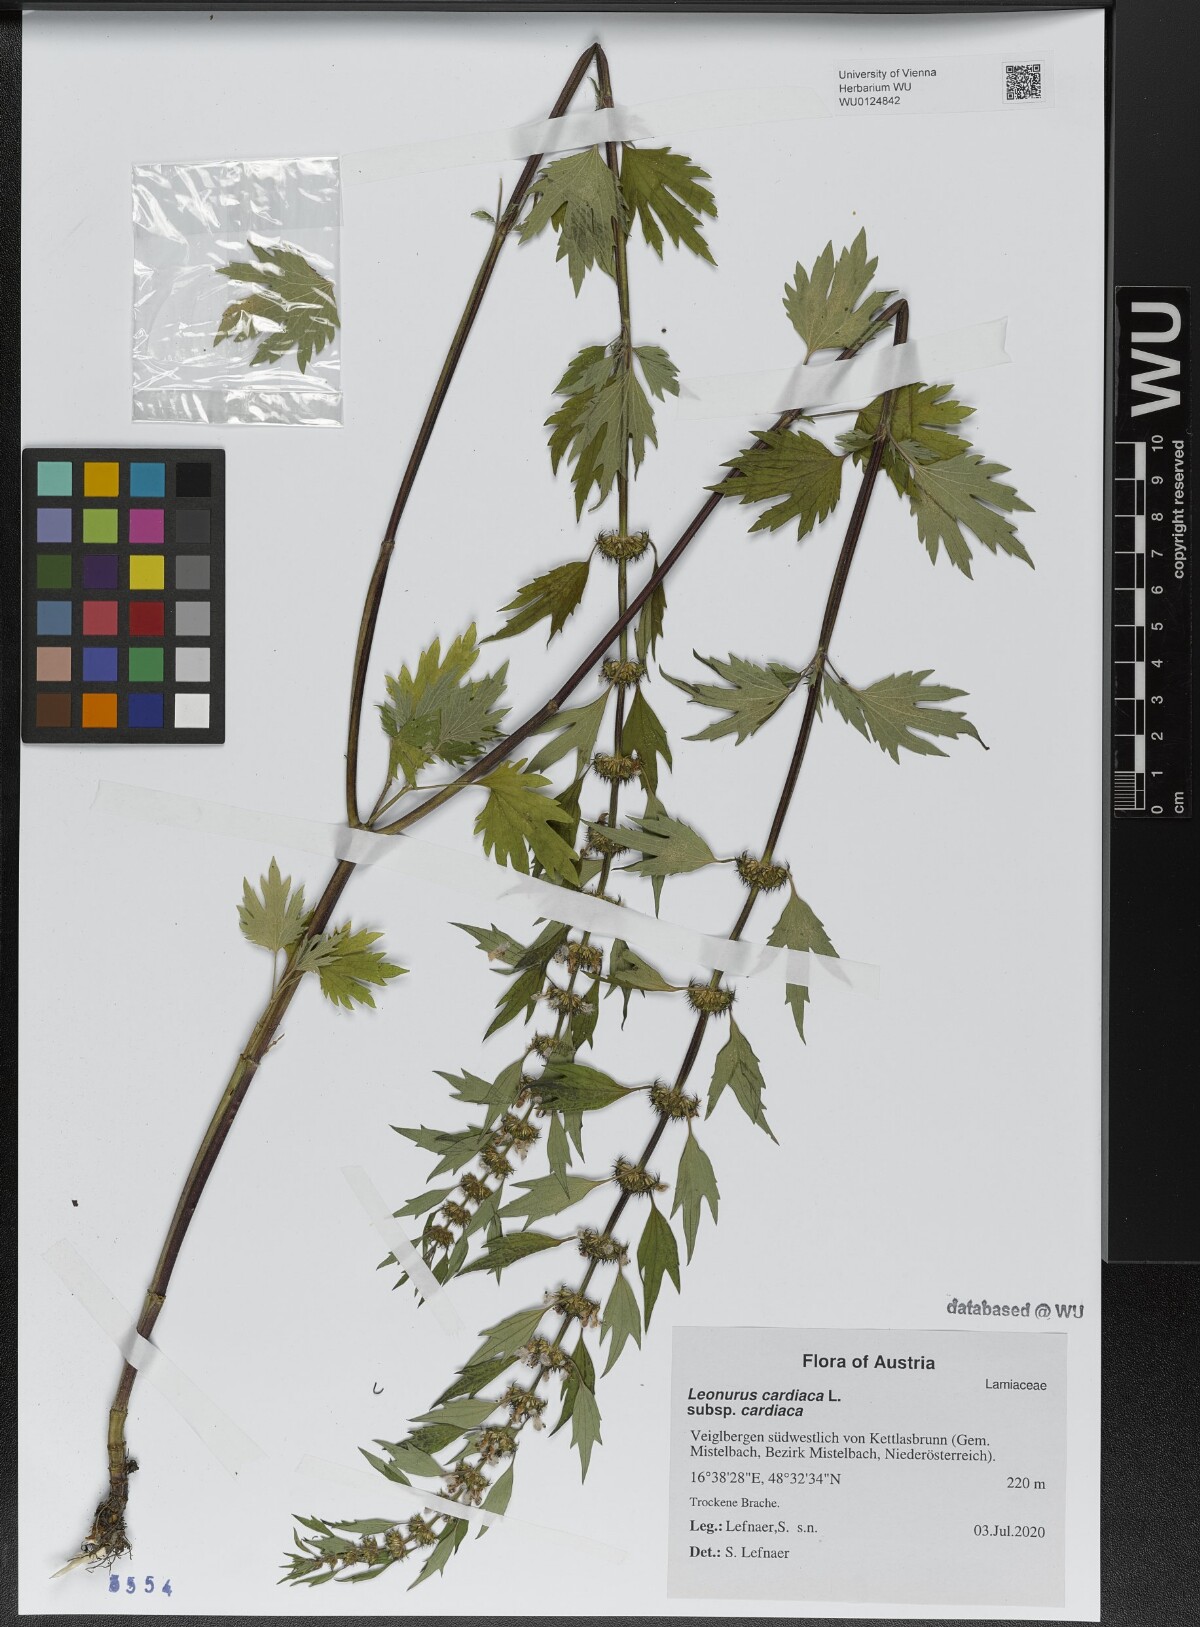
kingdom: Plantae
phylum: Tracheophyta
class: Magnoliopsida
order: Lamiales
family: Lamiaceae
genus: Leonurus
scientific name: Leonurus cardiaca
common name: Motherwort
